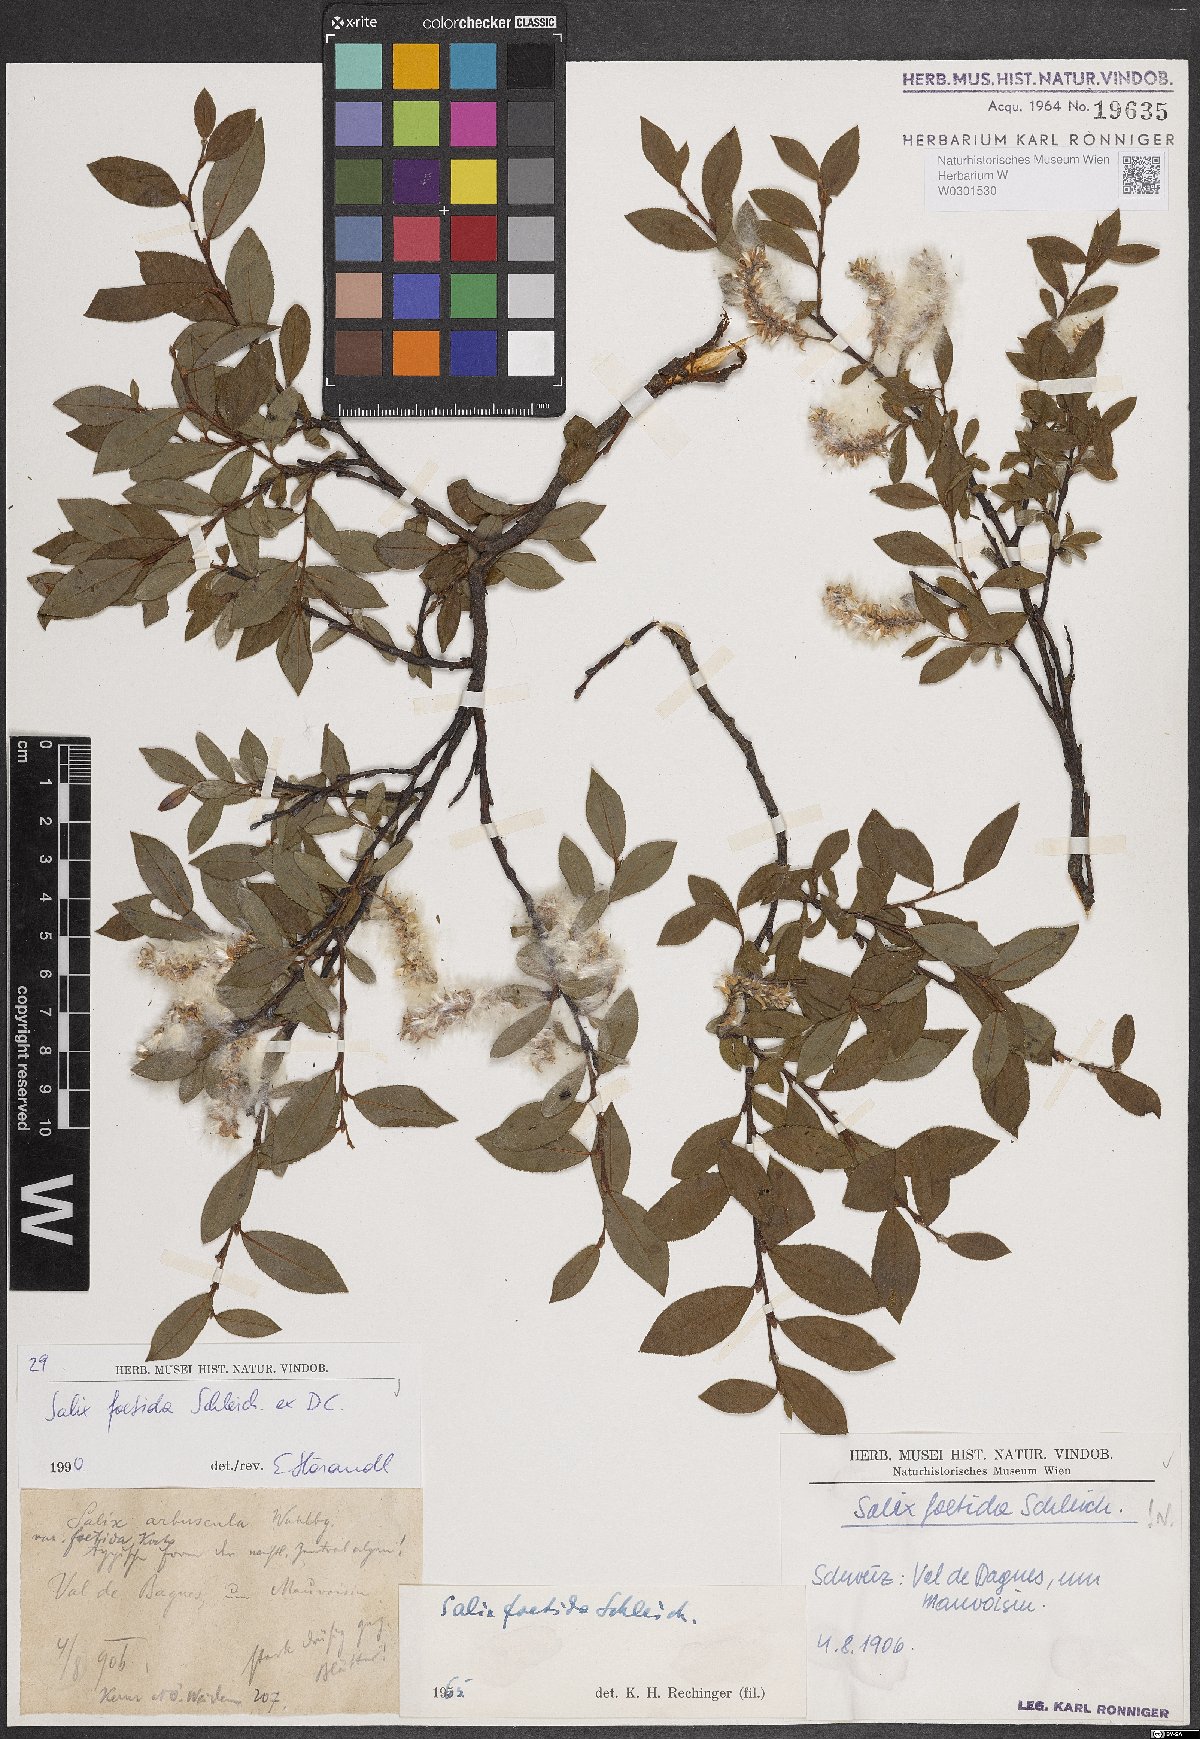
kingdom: Plantae
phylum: Tracheophyta
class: Magnoliopsida
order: Malpighiales
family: Salicaceae
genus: Salix
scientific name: Salix foetida
